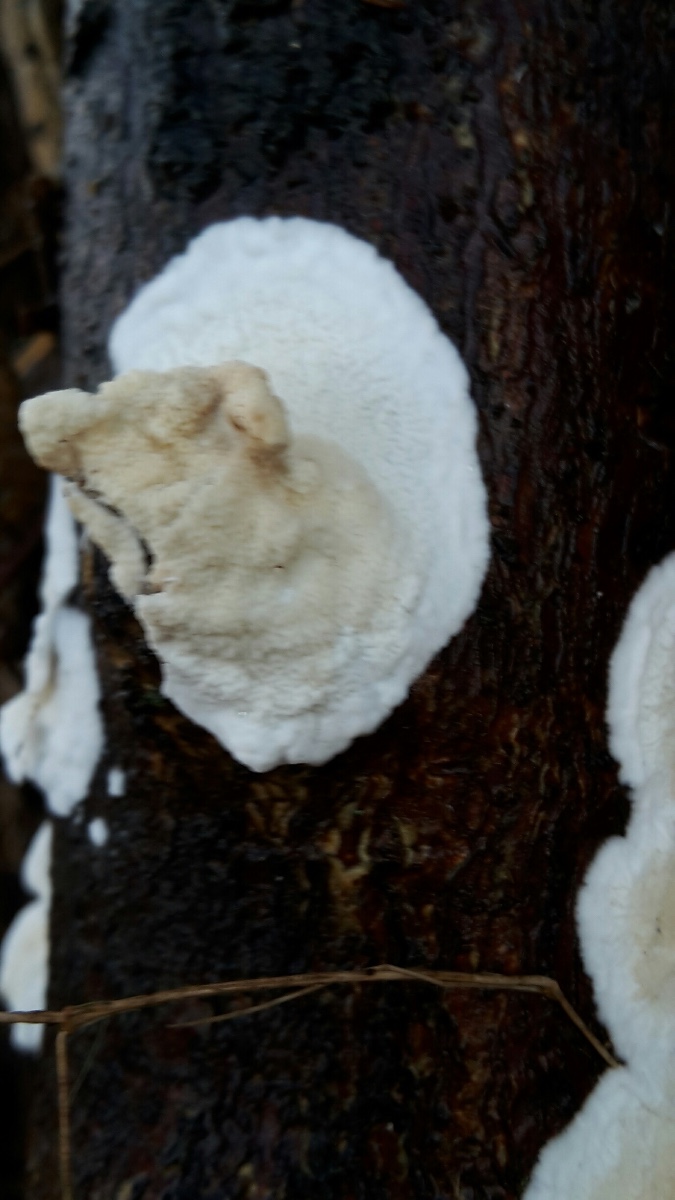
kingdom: Fungi
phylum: Basidiomycota
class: Agaricomycetes
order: Polyporales
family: Irpicaceae
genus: Byssomerulius
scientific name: Byssomerulius corium
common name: læder-åresvamp
